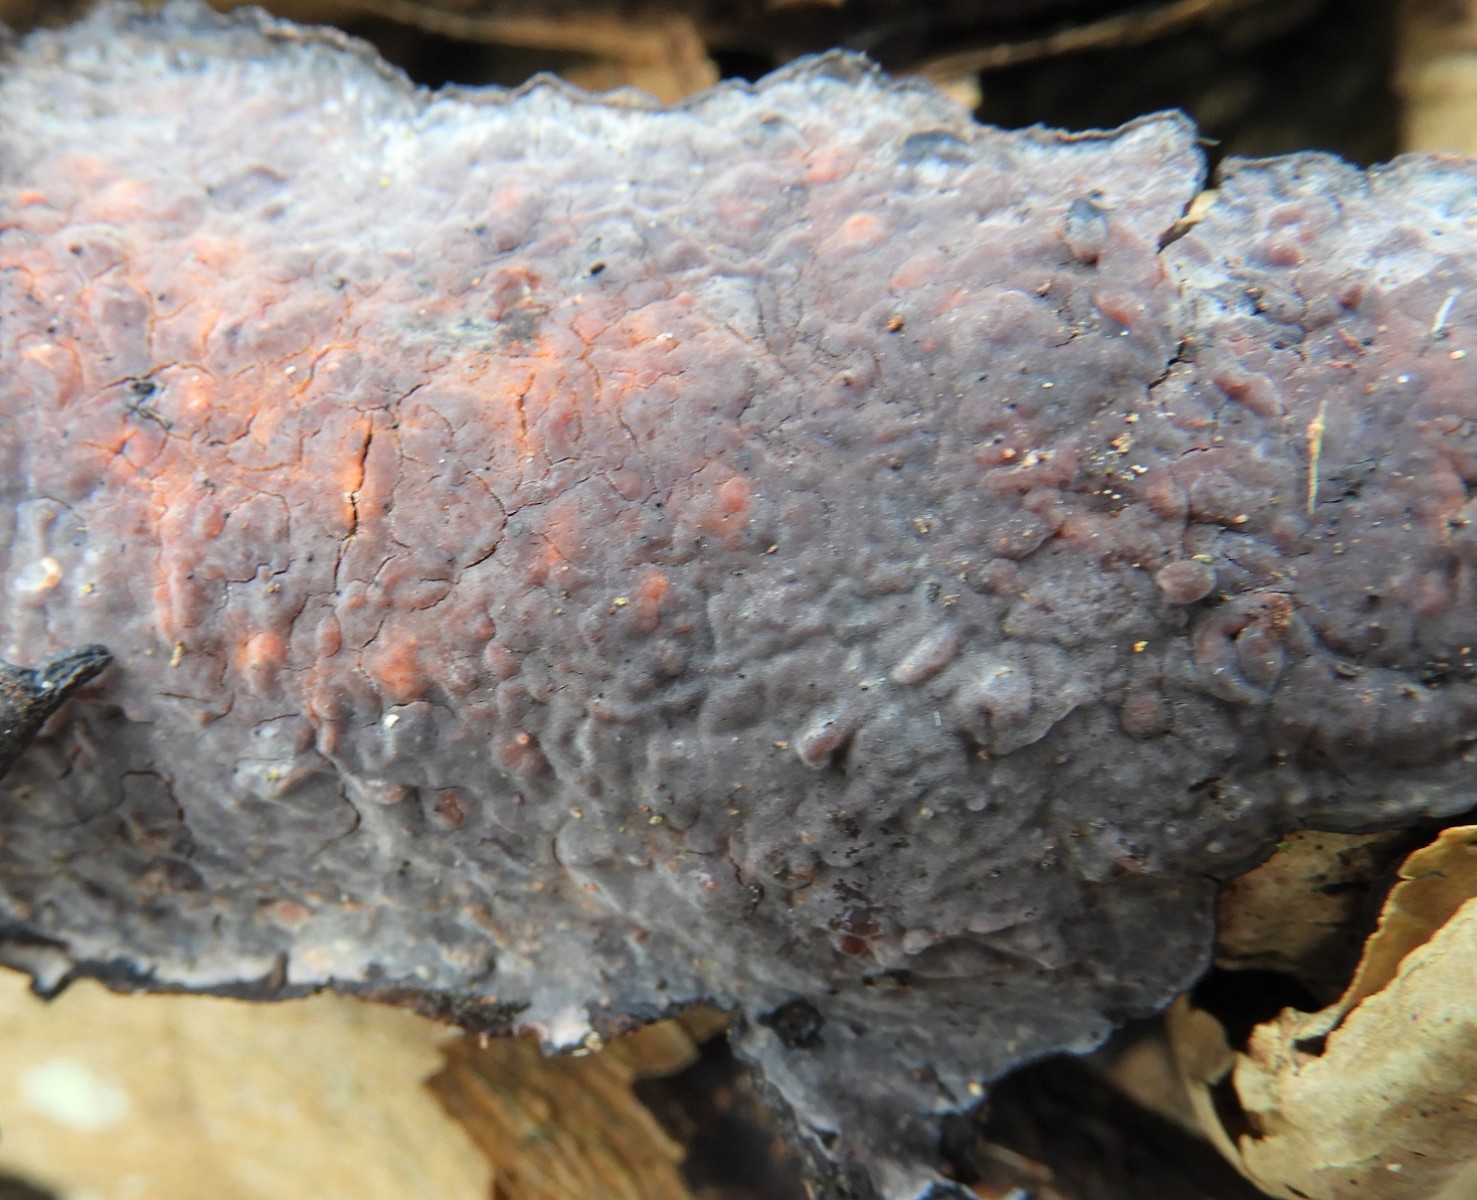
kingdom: Fungi
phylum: Basidiomycota
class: Agaricomycetes
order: Russulales
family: Peniophoraceae
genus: Peniophora
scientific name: Peniophora quercina
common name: ege-voksskind
